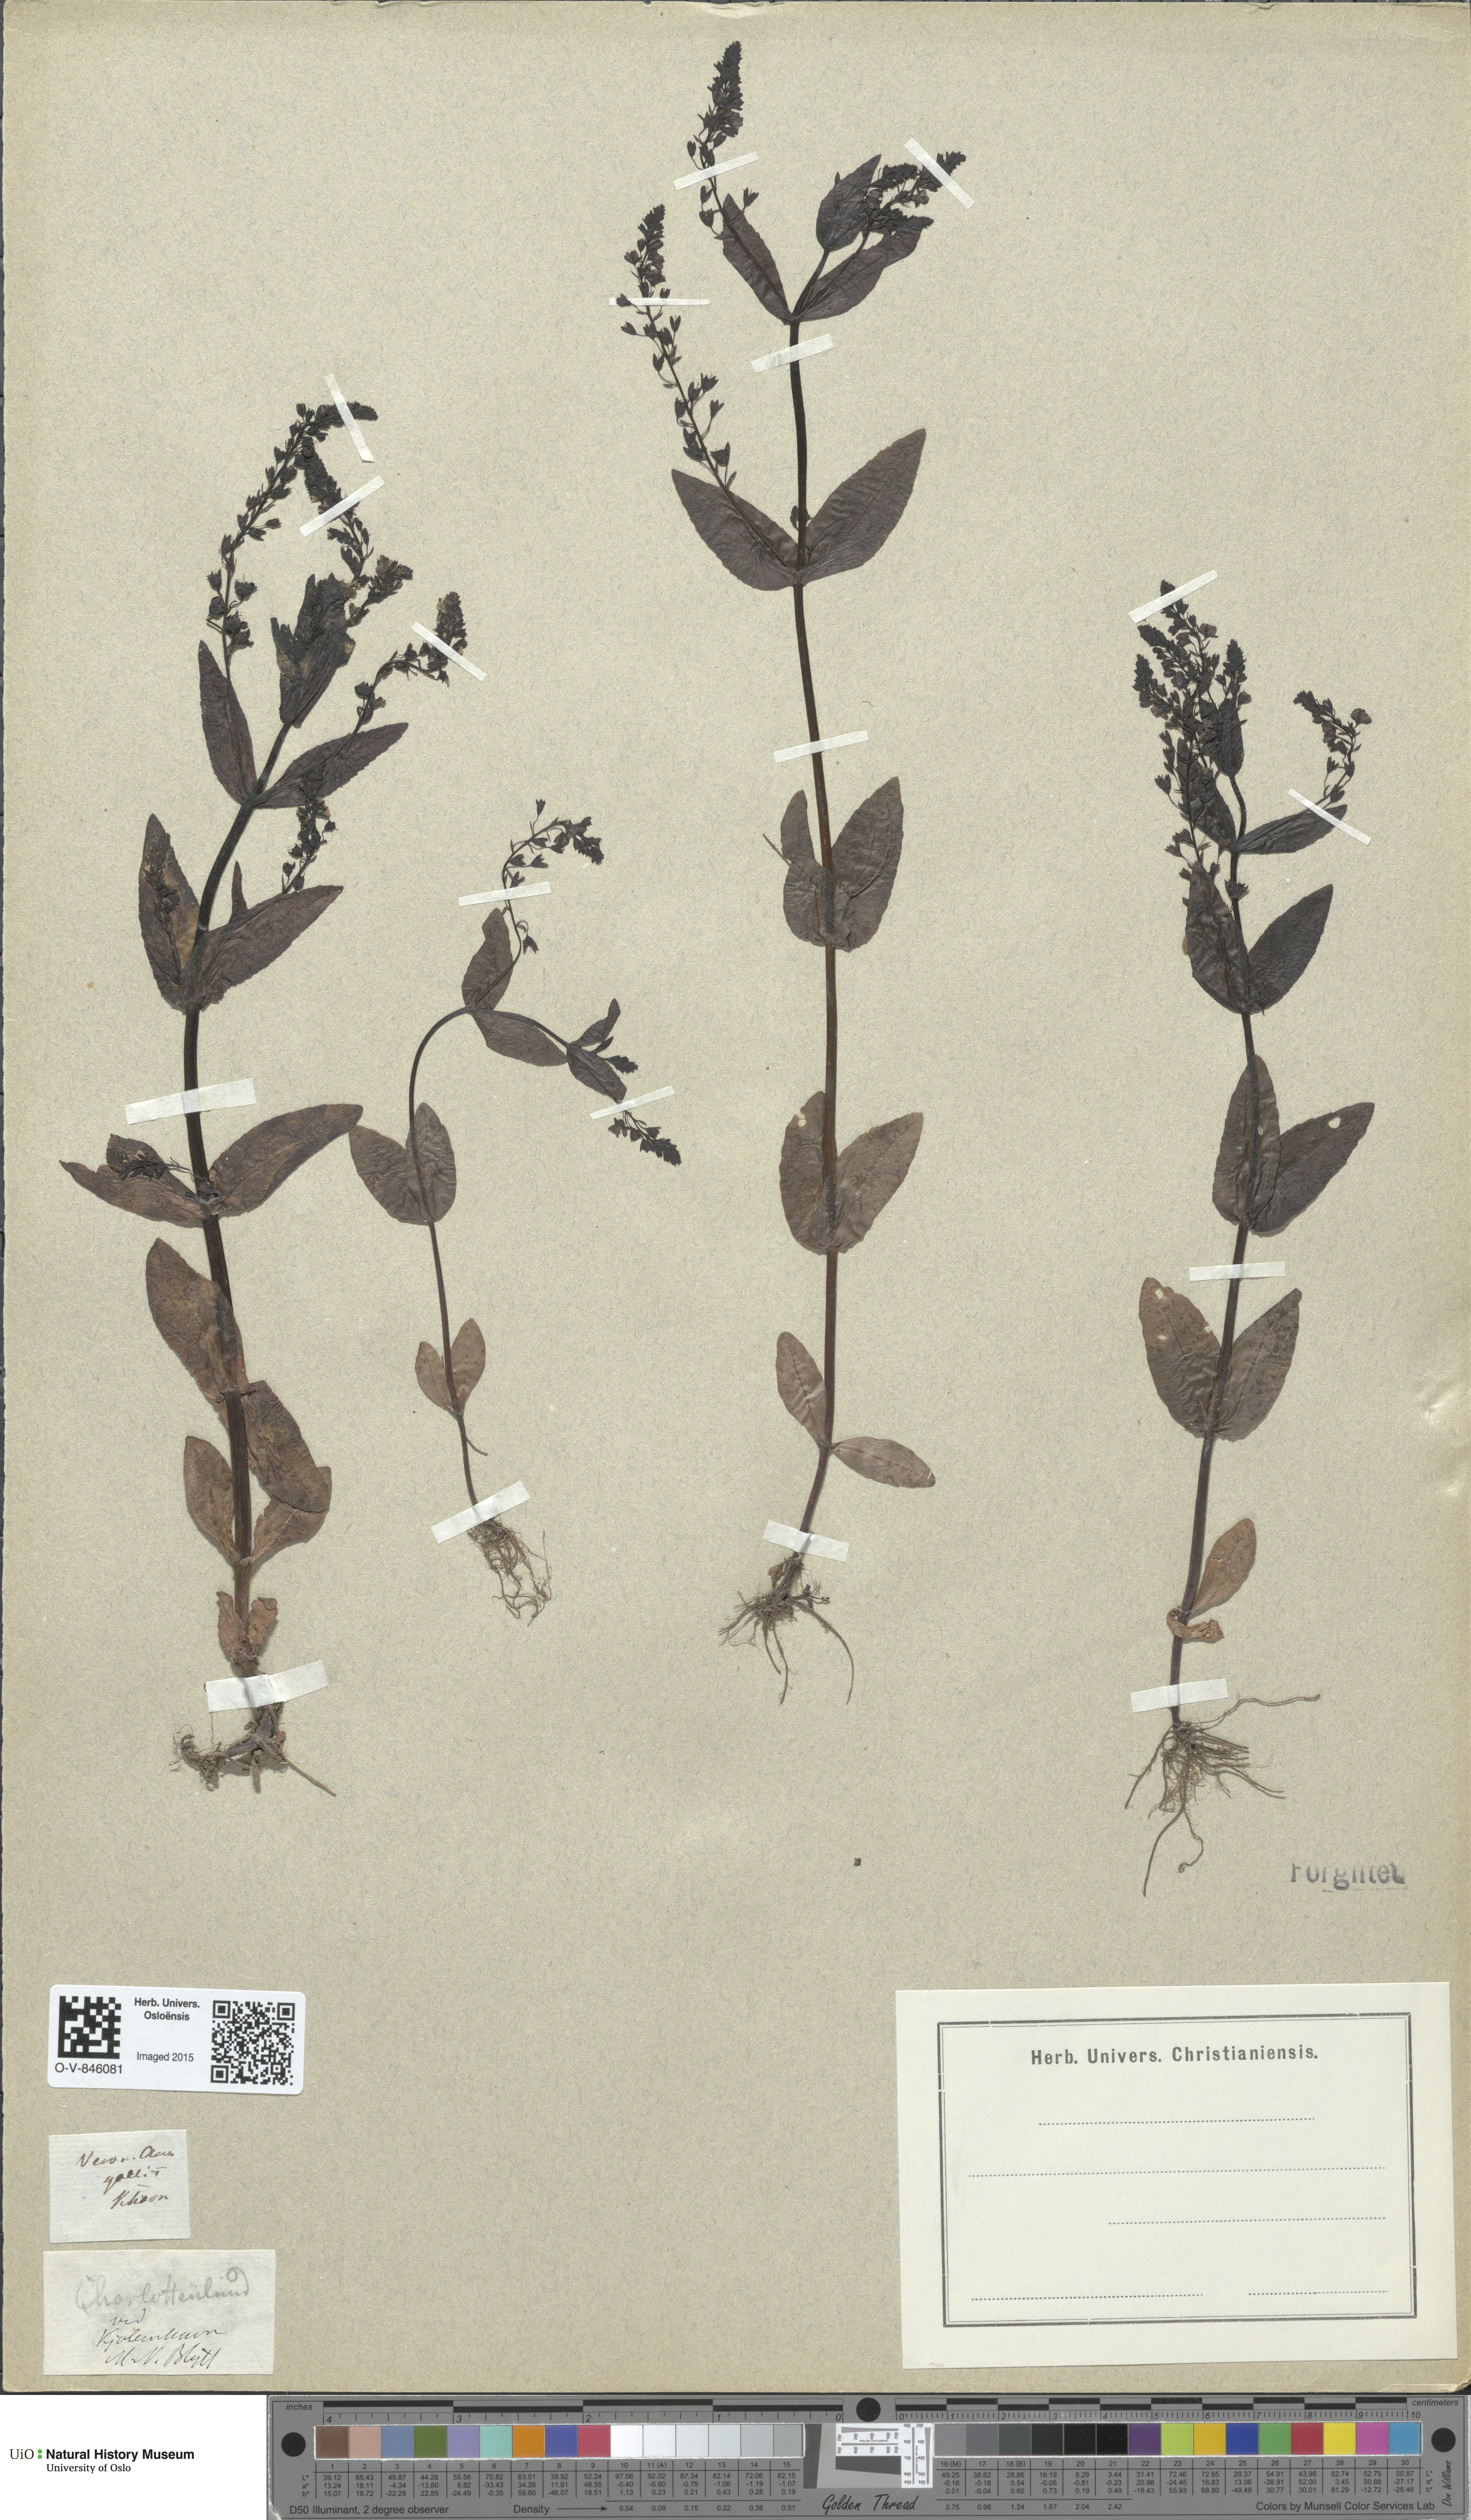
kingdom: Plantae
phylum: Tracheophyta
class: Magnoliopsida
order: Lamiales
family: Plantaginaceae
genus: Veronica
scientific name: Veronica anagallis-aquatica
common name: Water speedwell
